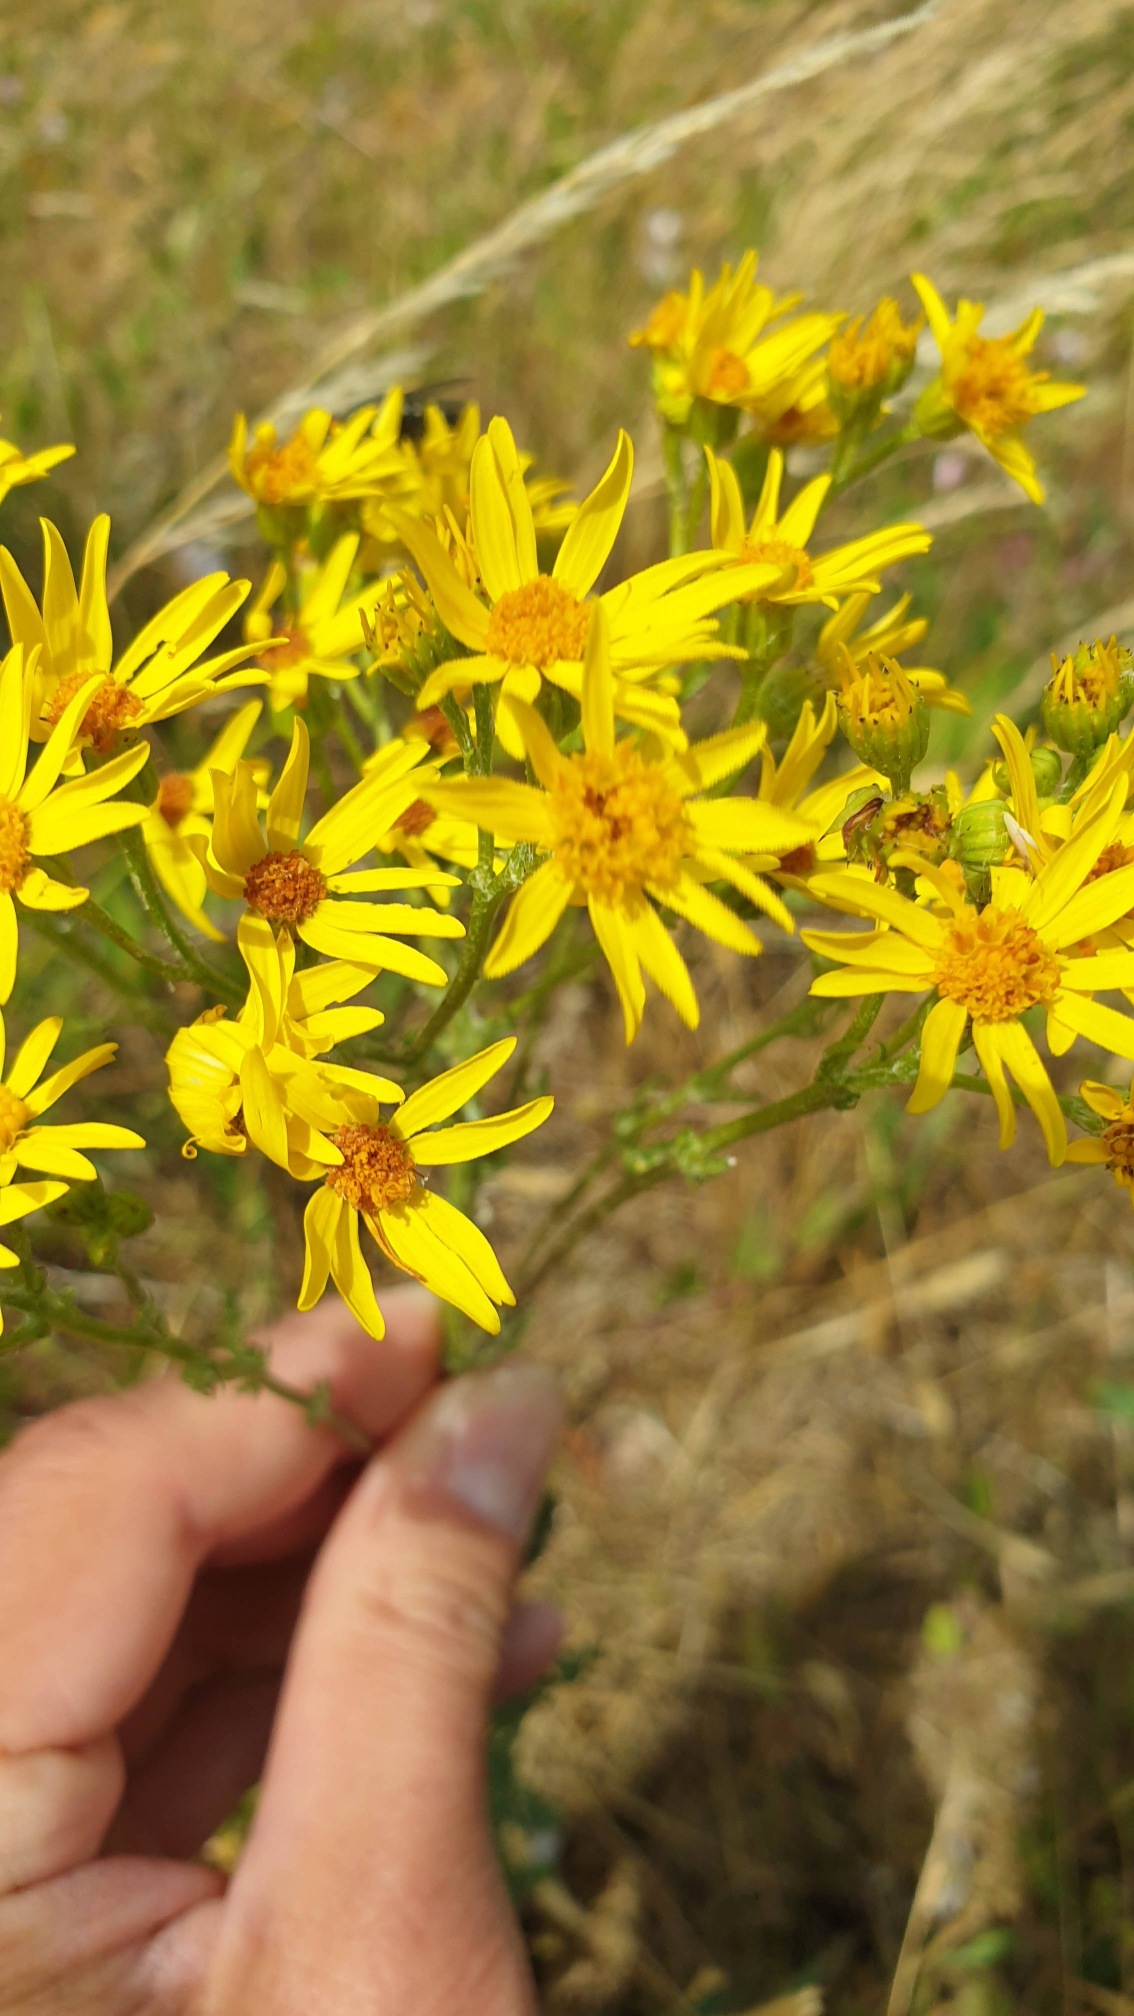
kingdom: Plantae
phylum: Tracheophyta
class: Magnoliopsida
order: Asterales
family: Asteraceae
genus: Jacobaea
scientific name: Jacobaea vulgaris
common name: Eng-brandbæger
